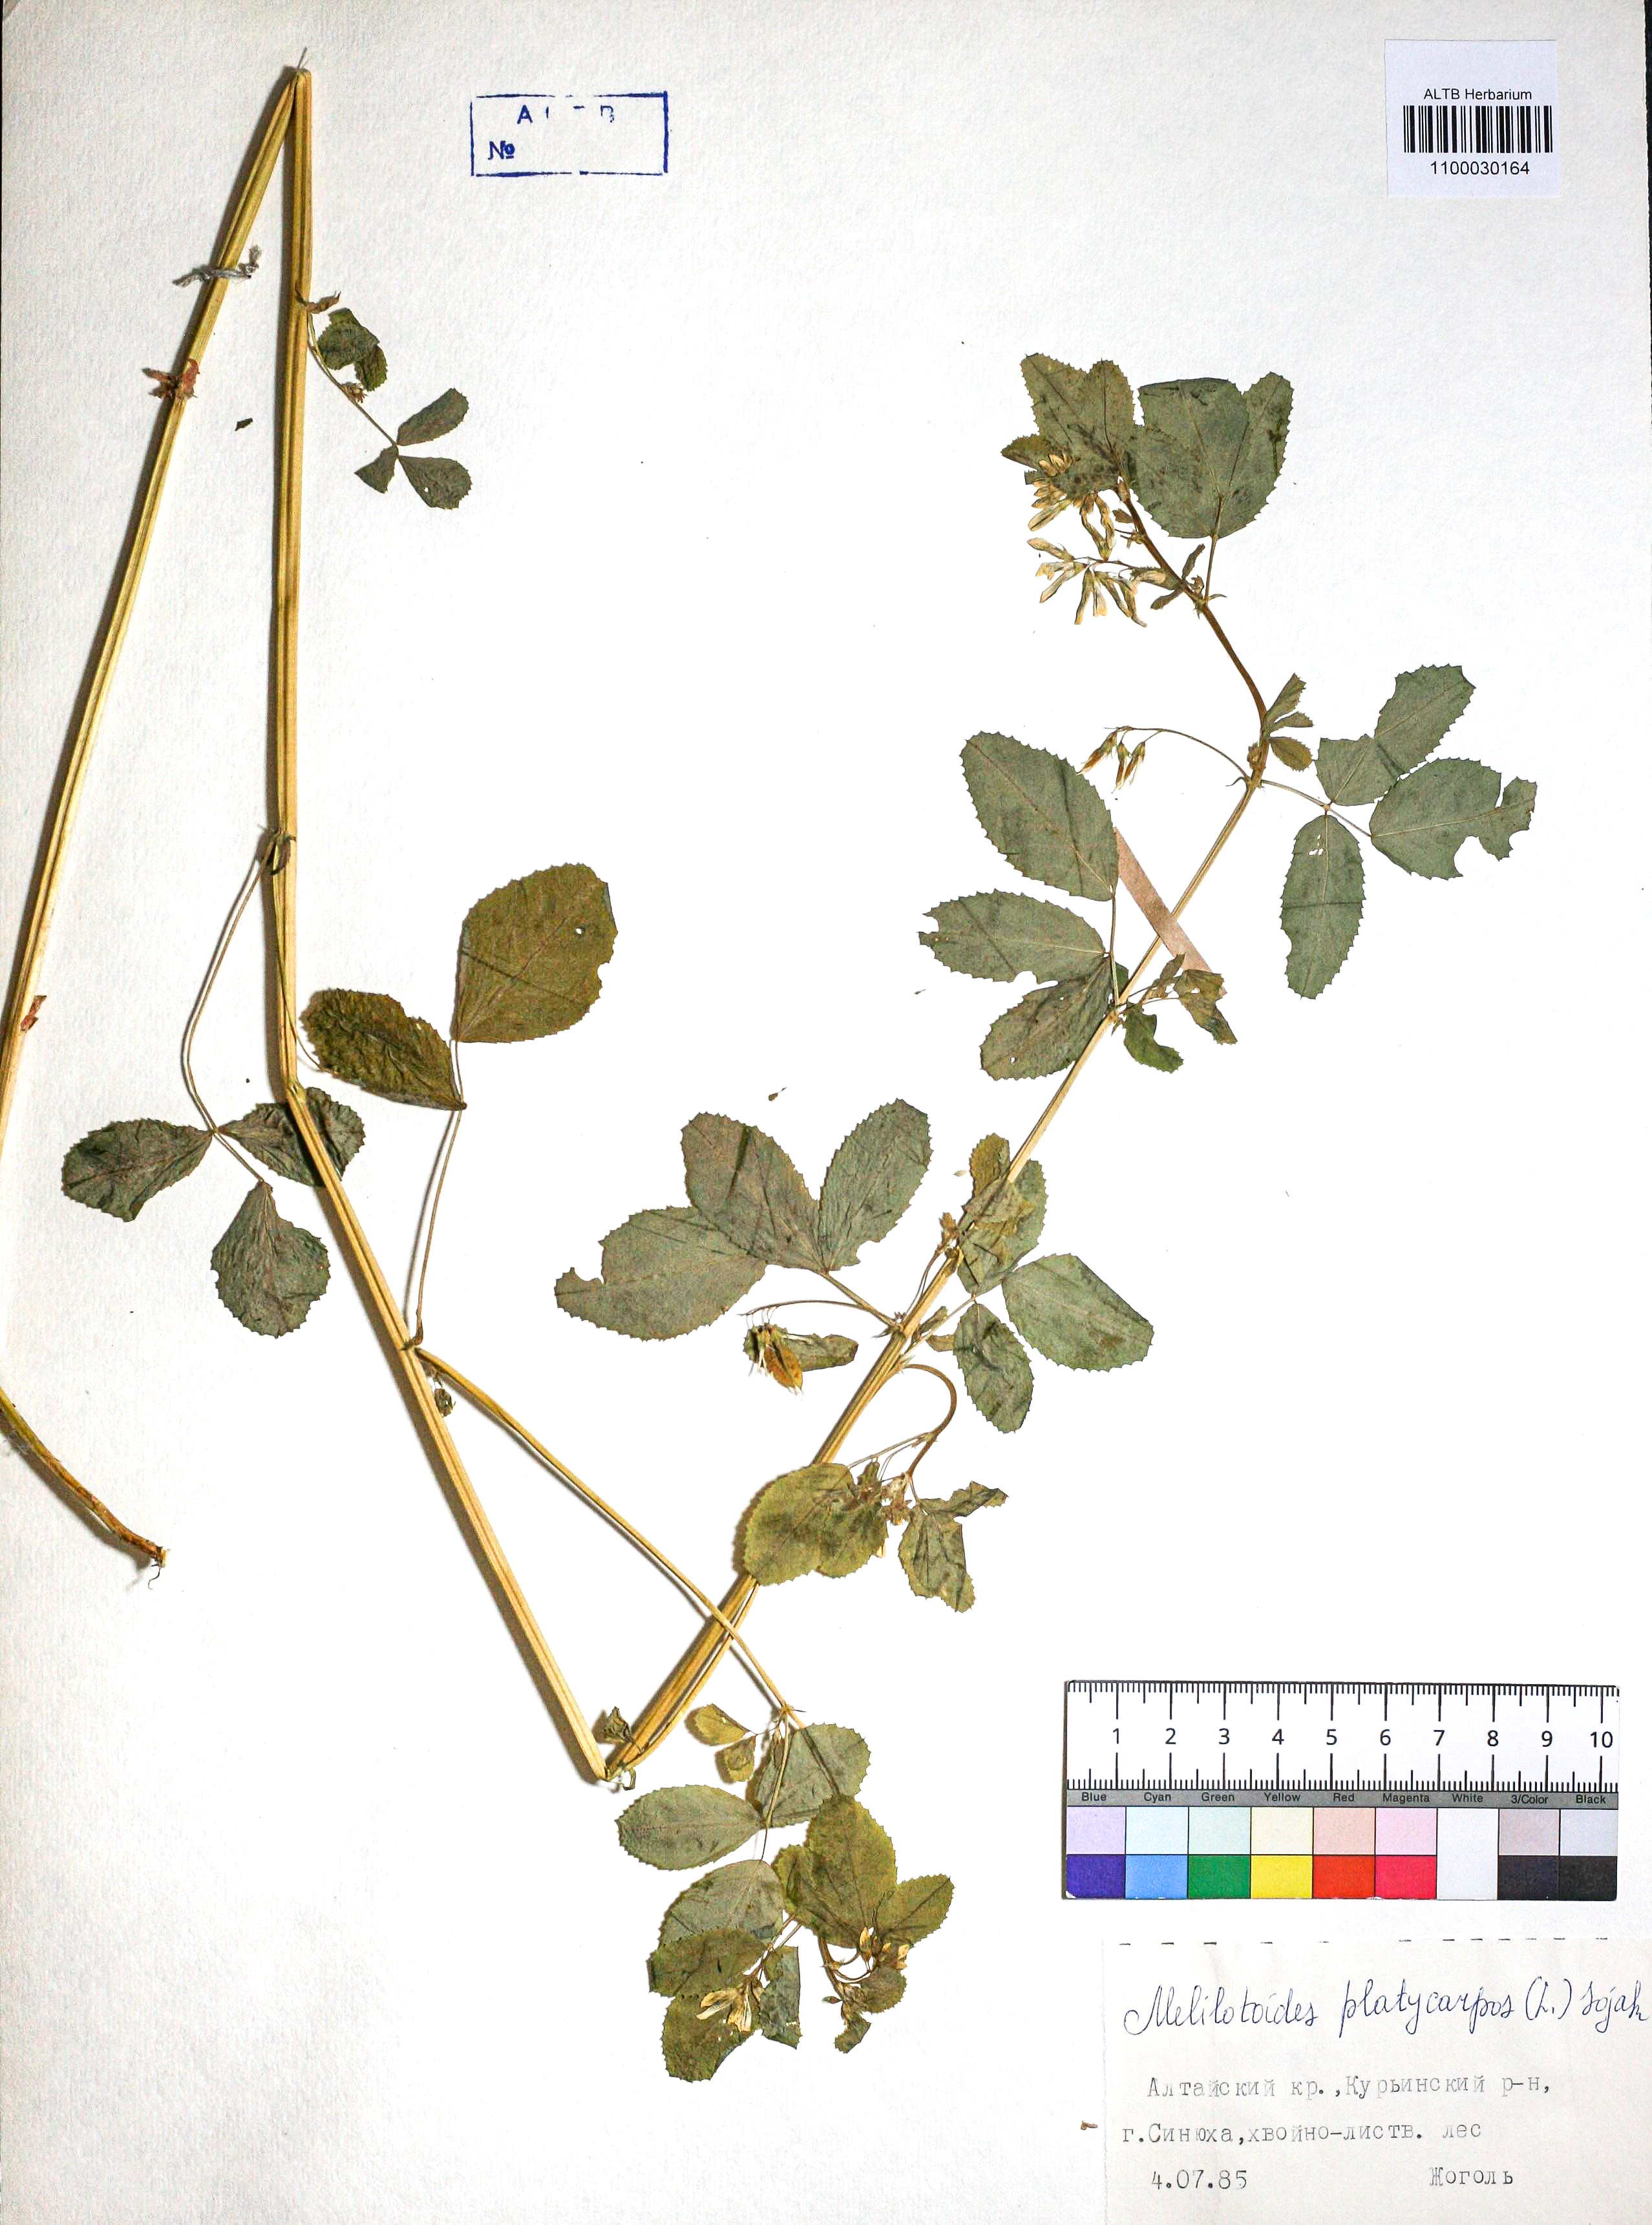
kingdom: Plantae
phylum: Tracheophyta
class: Magnoliopsida
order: Fabales
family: Fabaceae
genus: Medicago
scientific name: Medicago platycarpos
